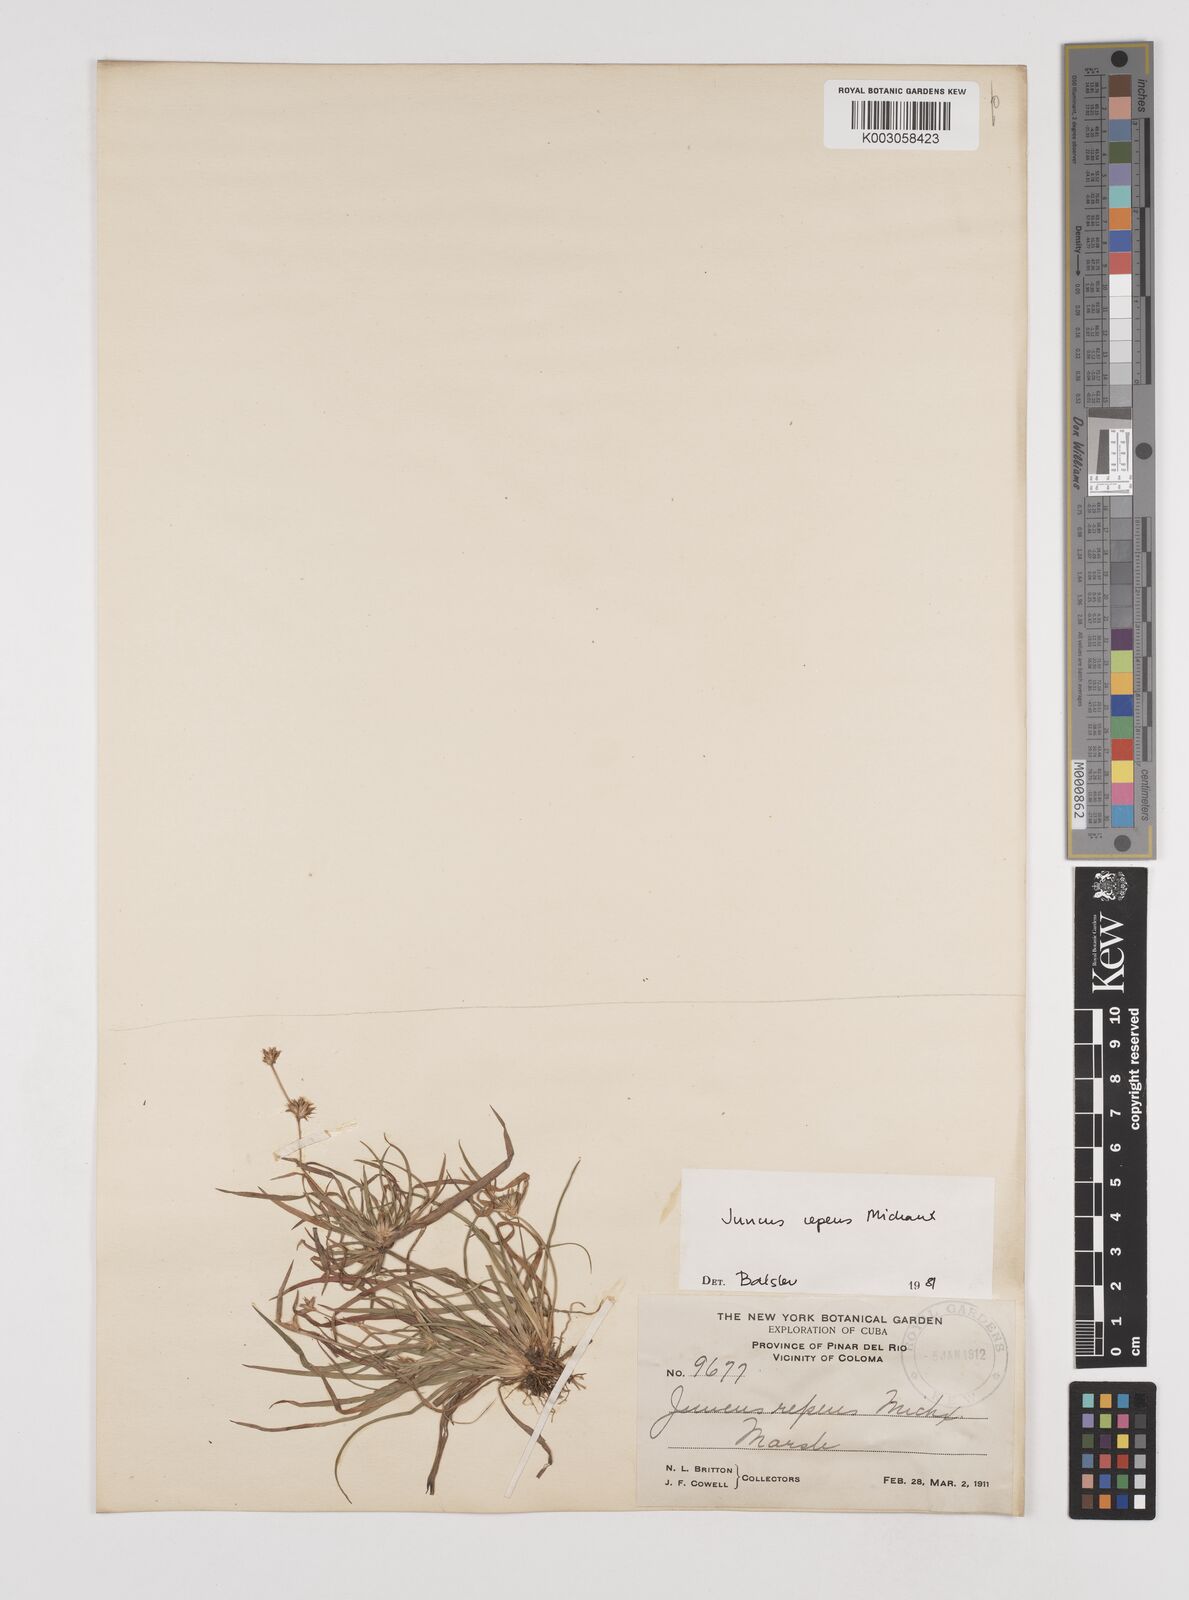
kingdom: Plantae
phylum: Tracheophyta
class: Liliopsida
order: Poales
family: Juncaceae
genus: Juncus
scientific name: Juncus repens
